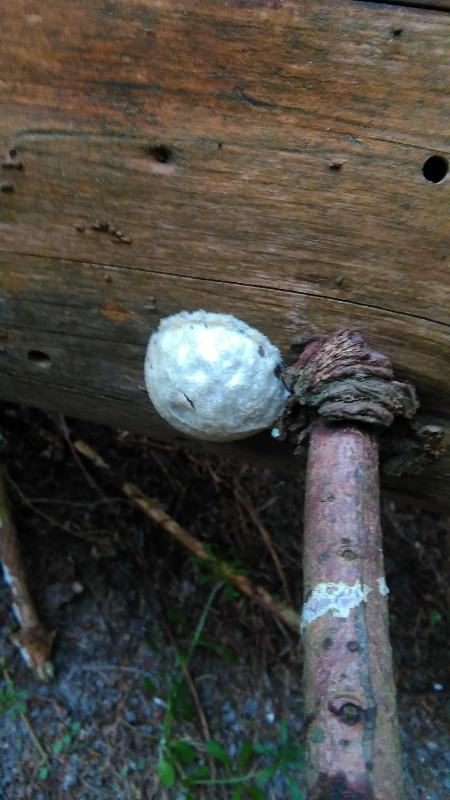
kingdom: Protozoa
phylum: Mycetozoa
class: Myxomycetes
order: Cribrariales
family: Tubiferaceae
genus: Reticularia
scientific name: Reticularia lycoperdon
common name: skinnende støvpude
